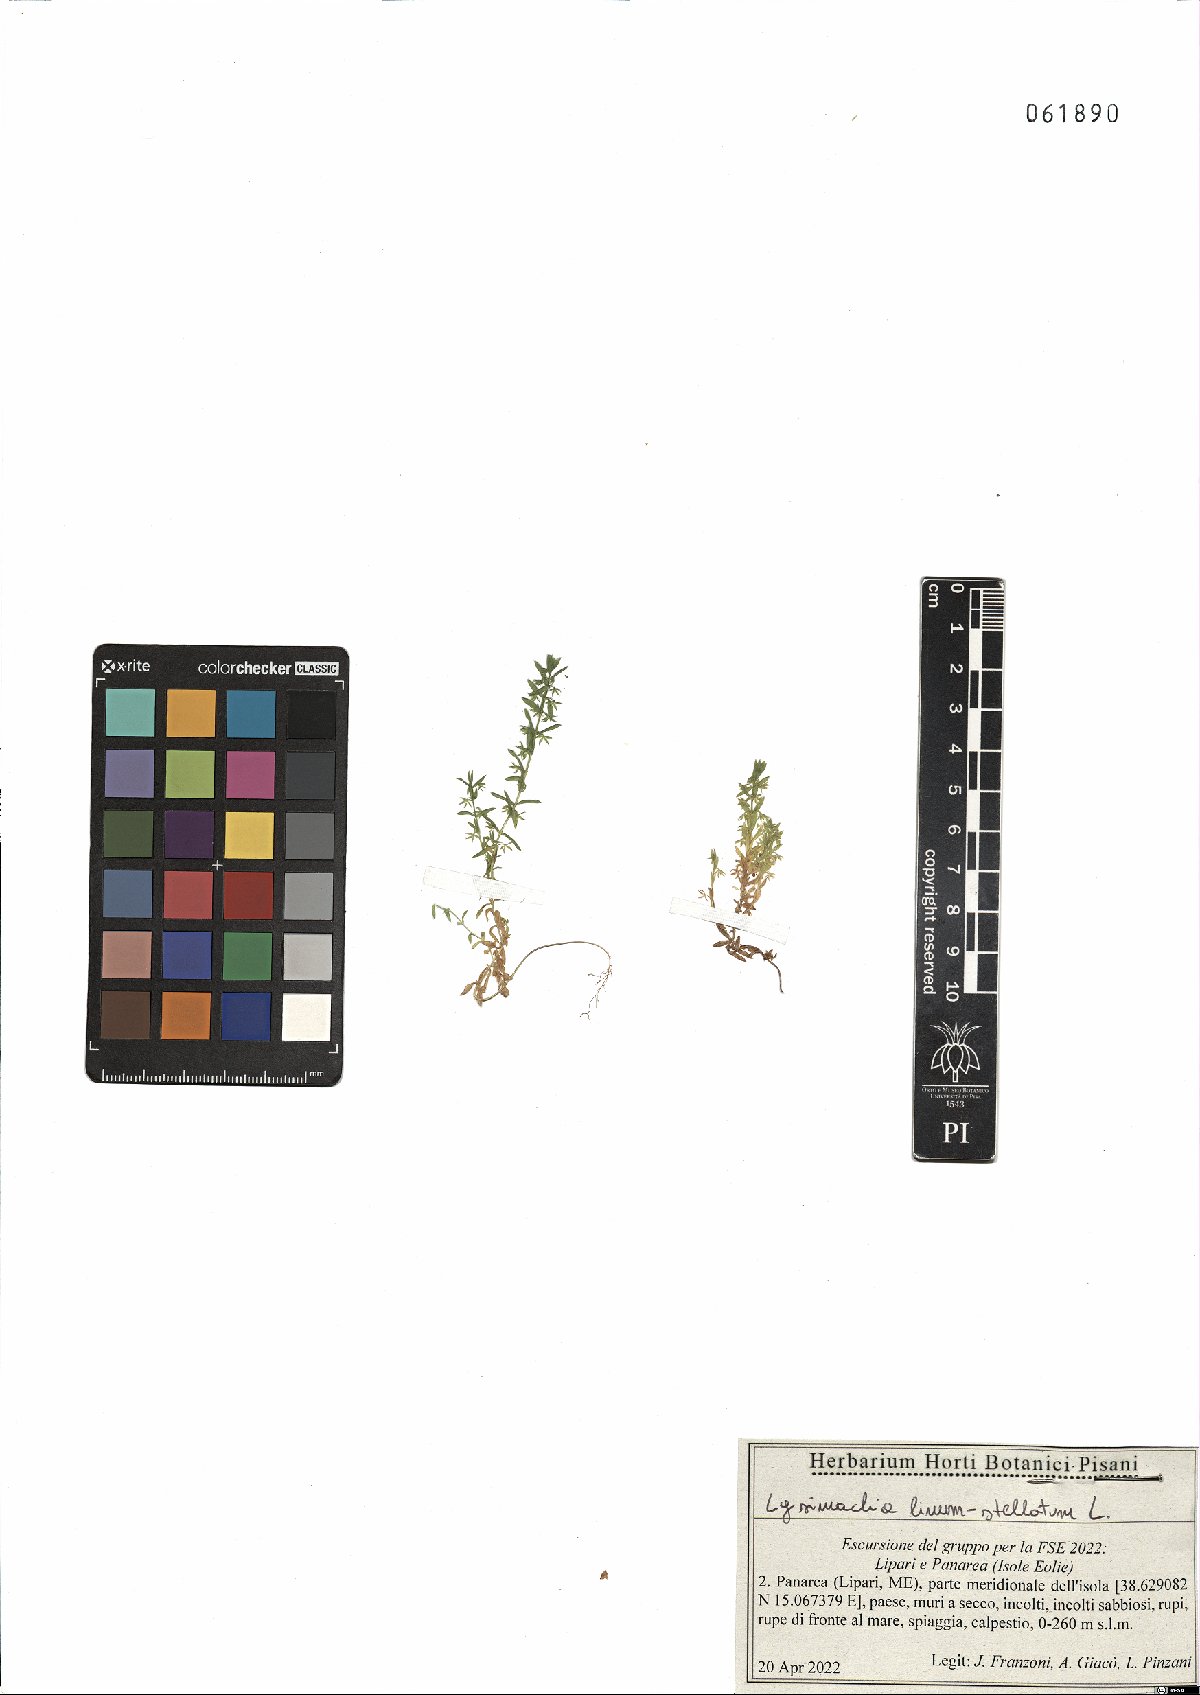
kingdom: Plantae
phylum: Tracheophyta
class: Magnoliopsida
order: Ericales
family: Primulaceae
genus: Lysimachia
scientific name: Lysimachia linum-stellatum
